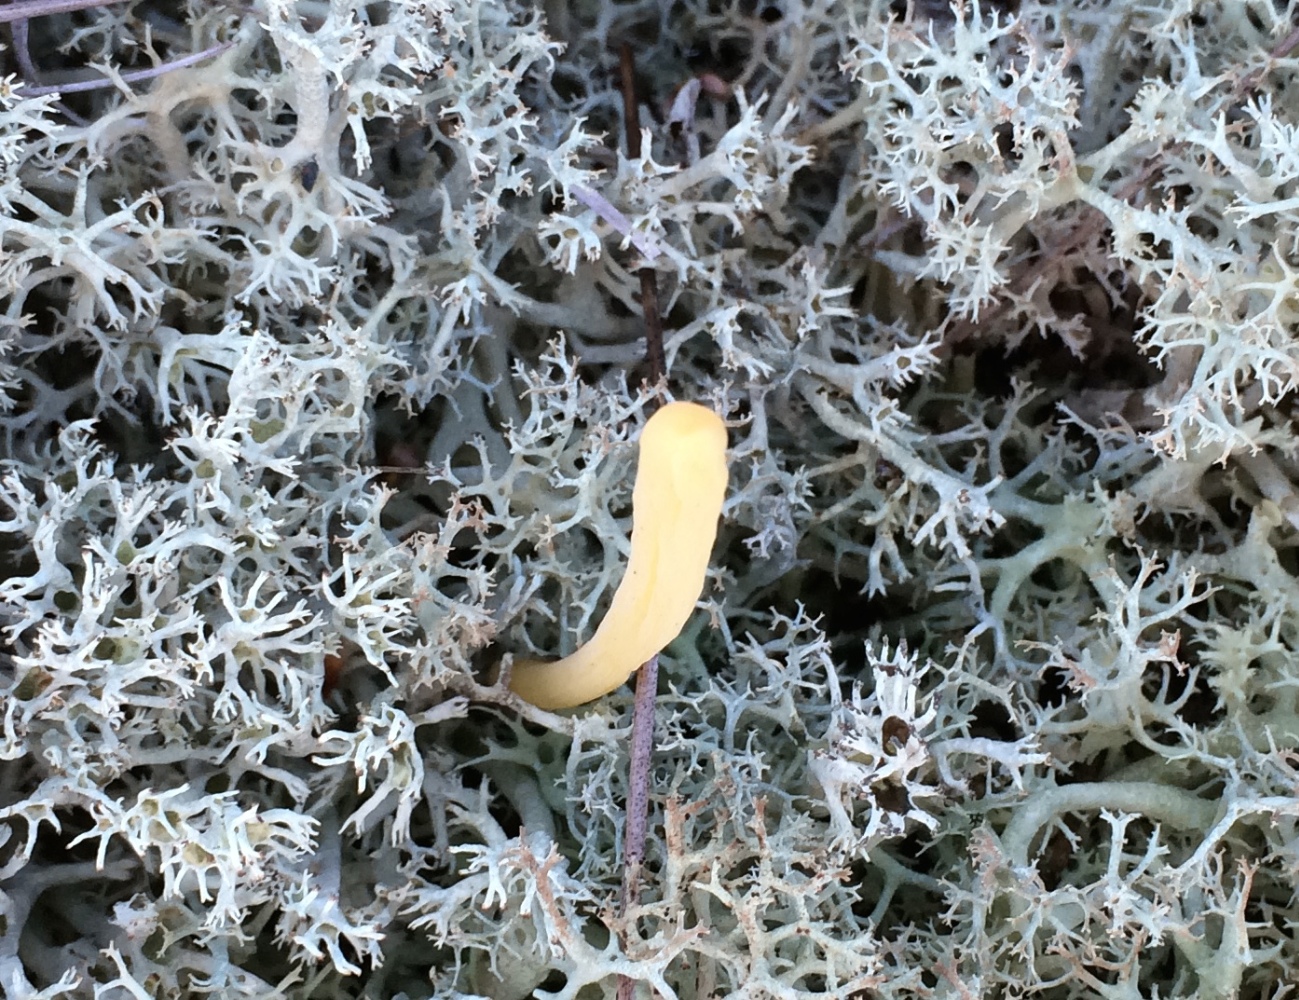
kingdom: Fungi
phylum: Basidiomycota
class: Agaricomycetes
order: Agaricales
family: Clavariaceae
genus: Clavaria
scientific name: Clavaria argillacea
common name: lerfarvet køllesvamp
